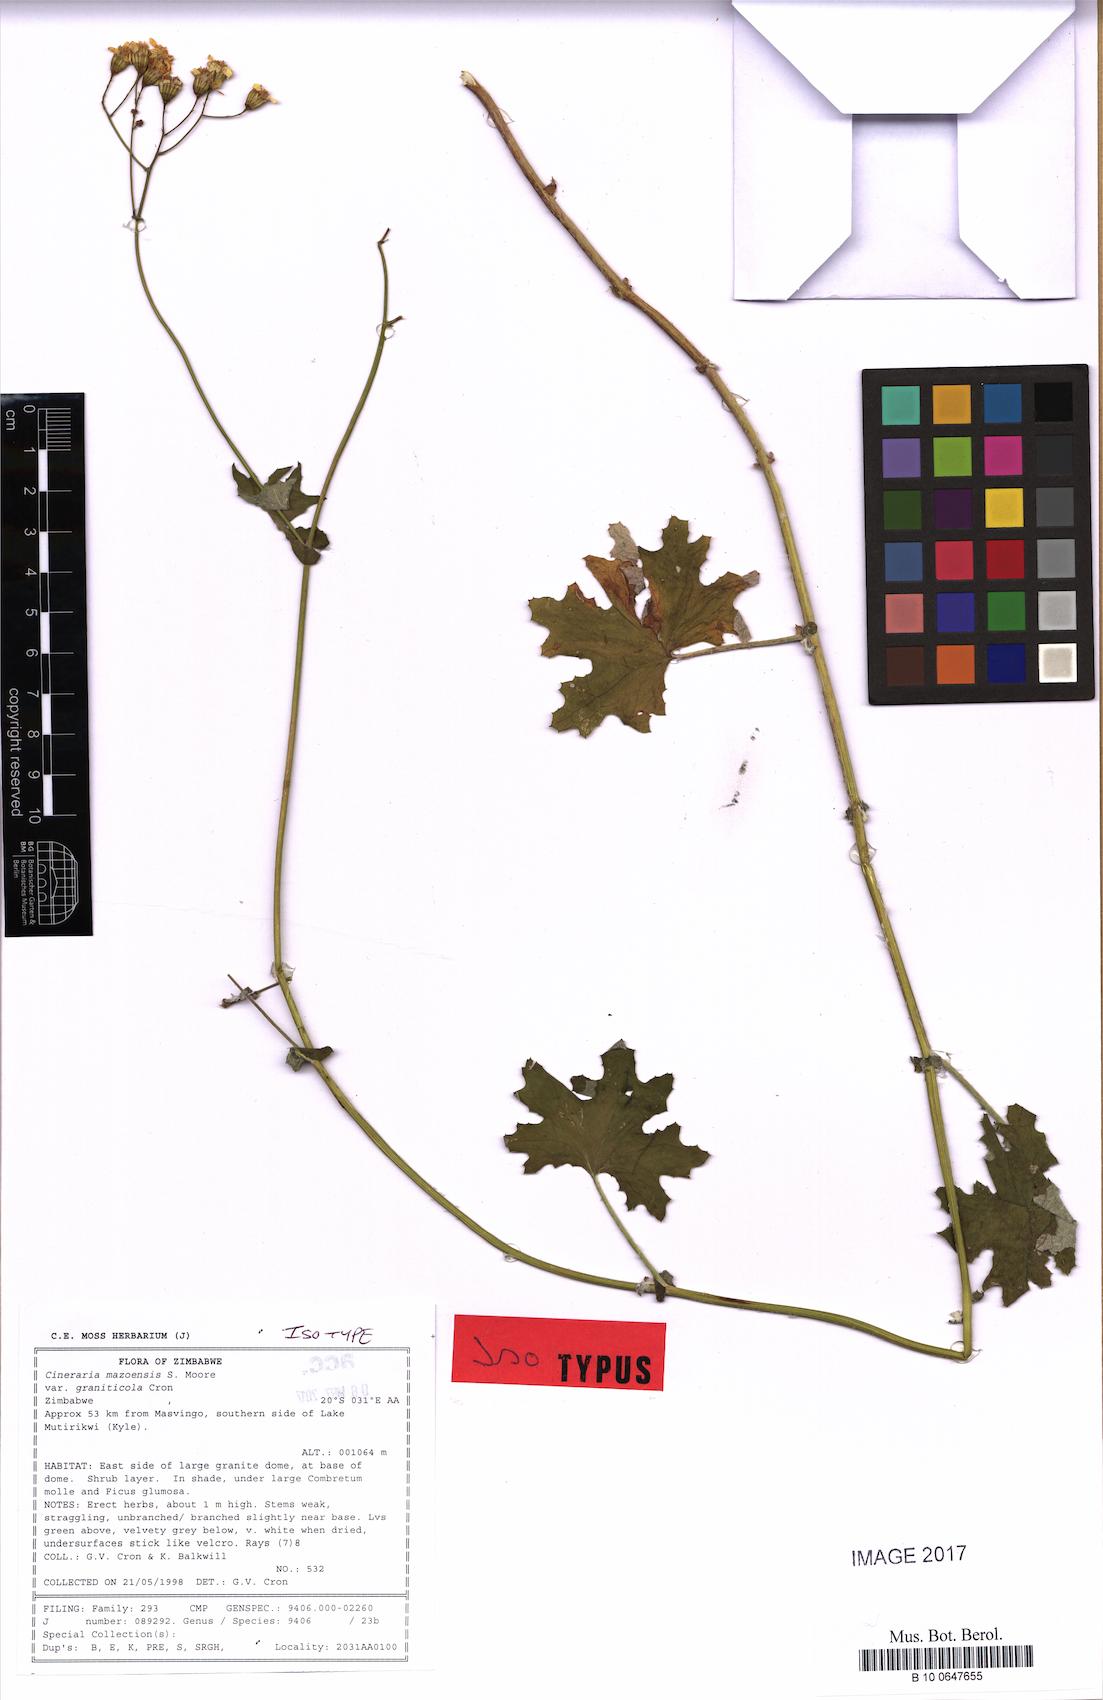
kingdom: Plantae
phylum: Tracheophyta
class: Magnoliopsida
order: Asterales
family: Asteraceae
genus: Cineraria
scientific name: Cineraria mazoensis
